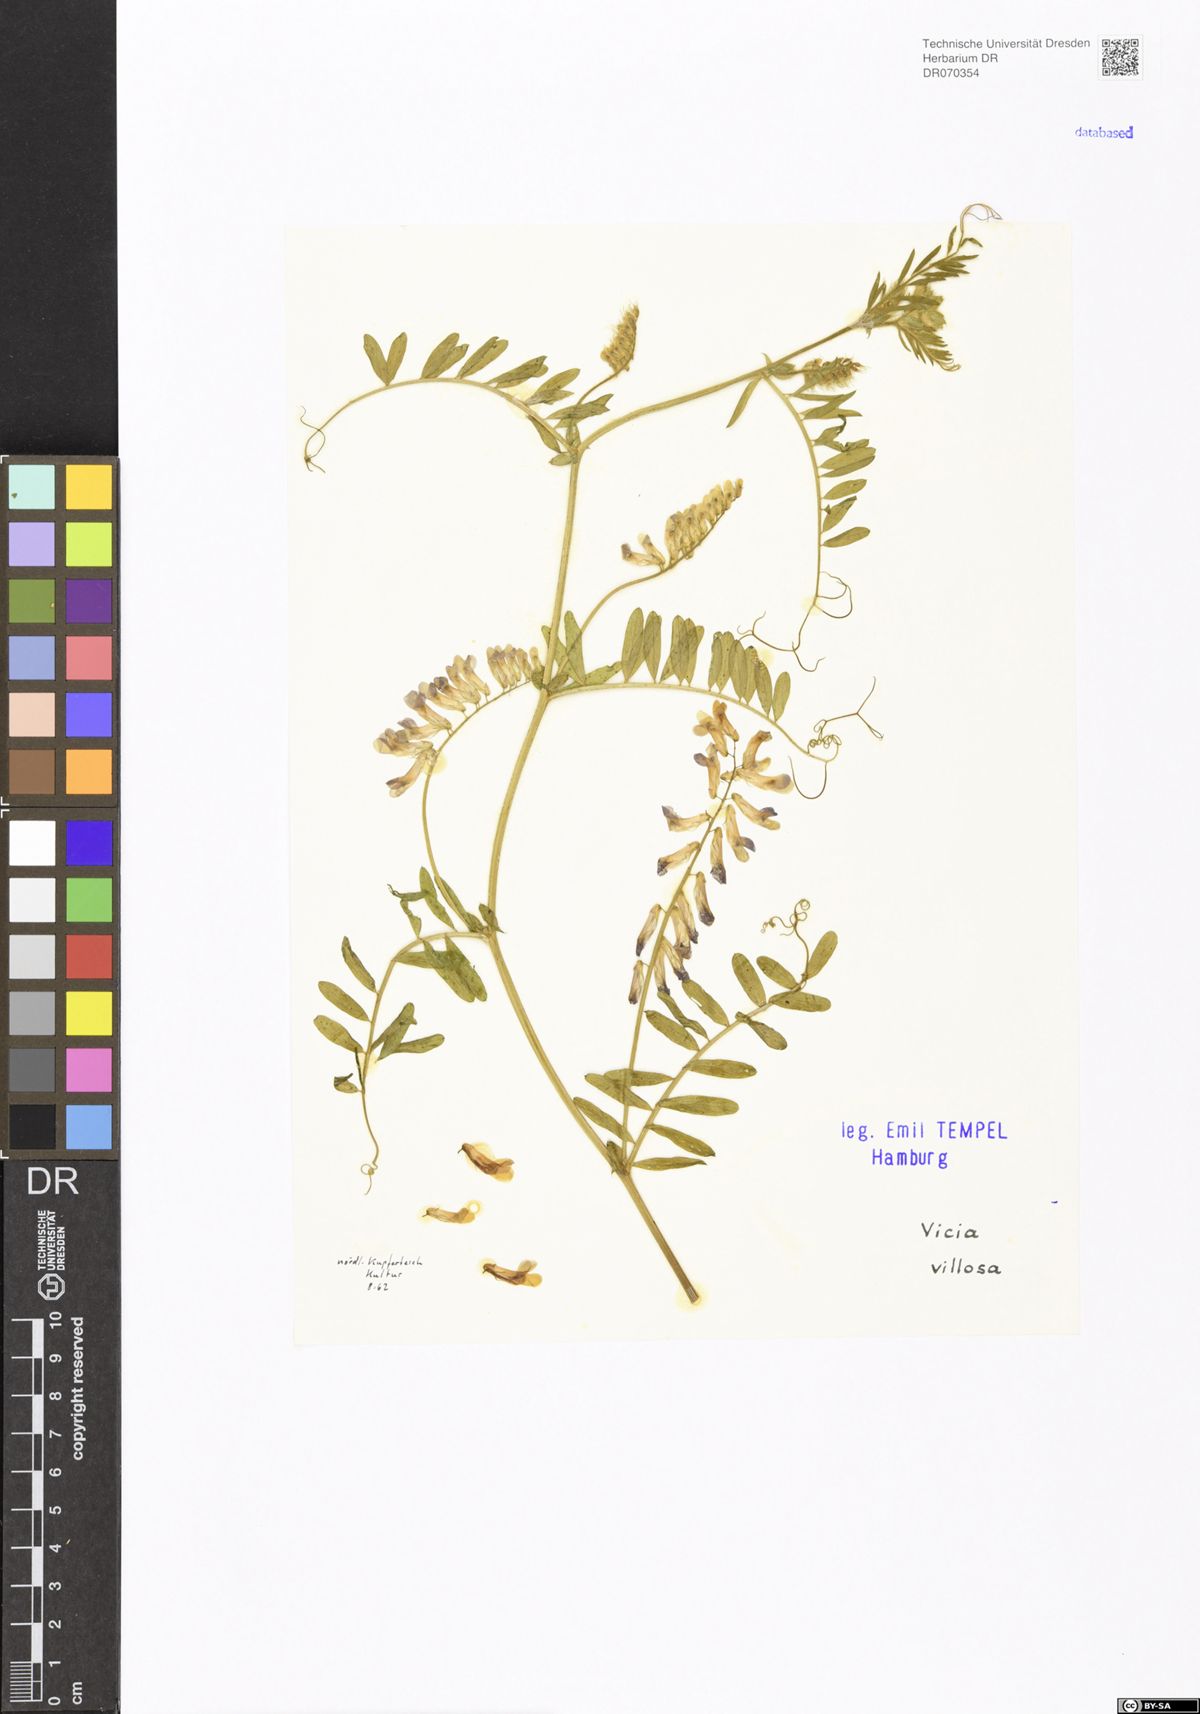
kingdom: Plantae
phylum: Tracheophyta
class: Magnoliopsida
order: Fabales
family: Fabaceae
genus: Vicia
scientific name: Vicia villosa
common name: Fodder vetch
